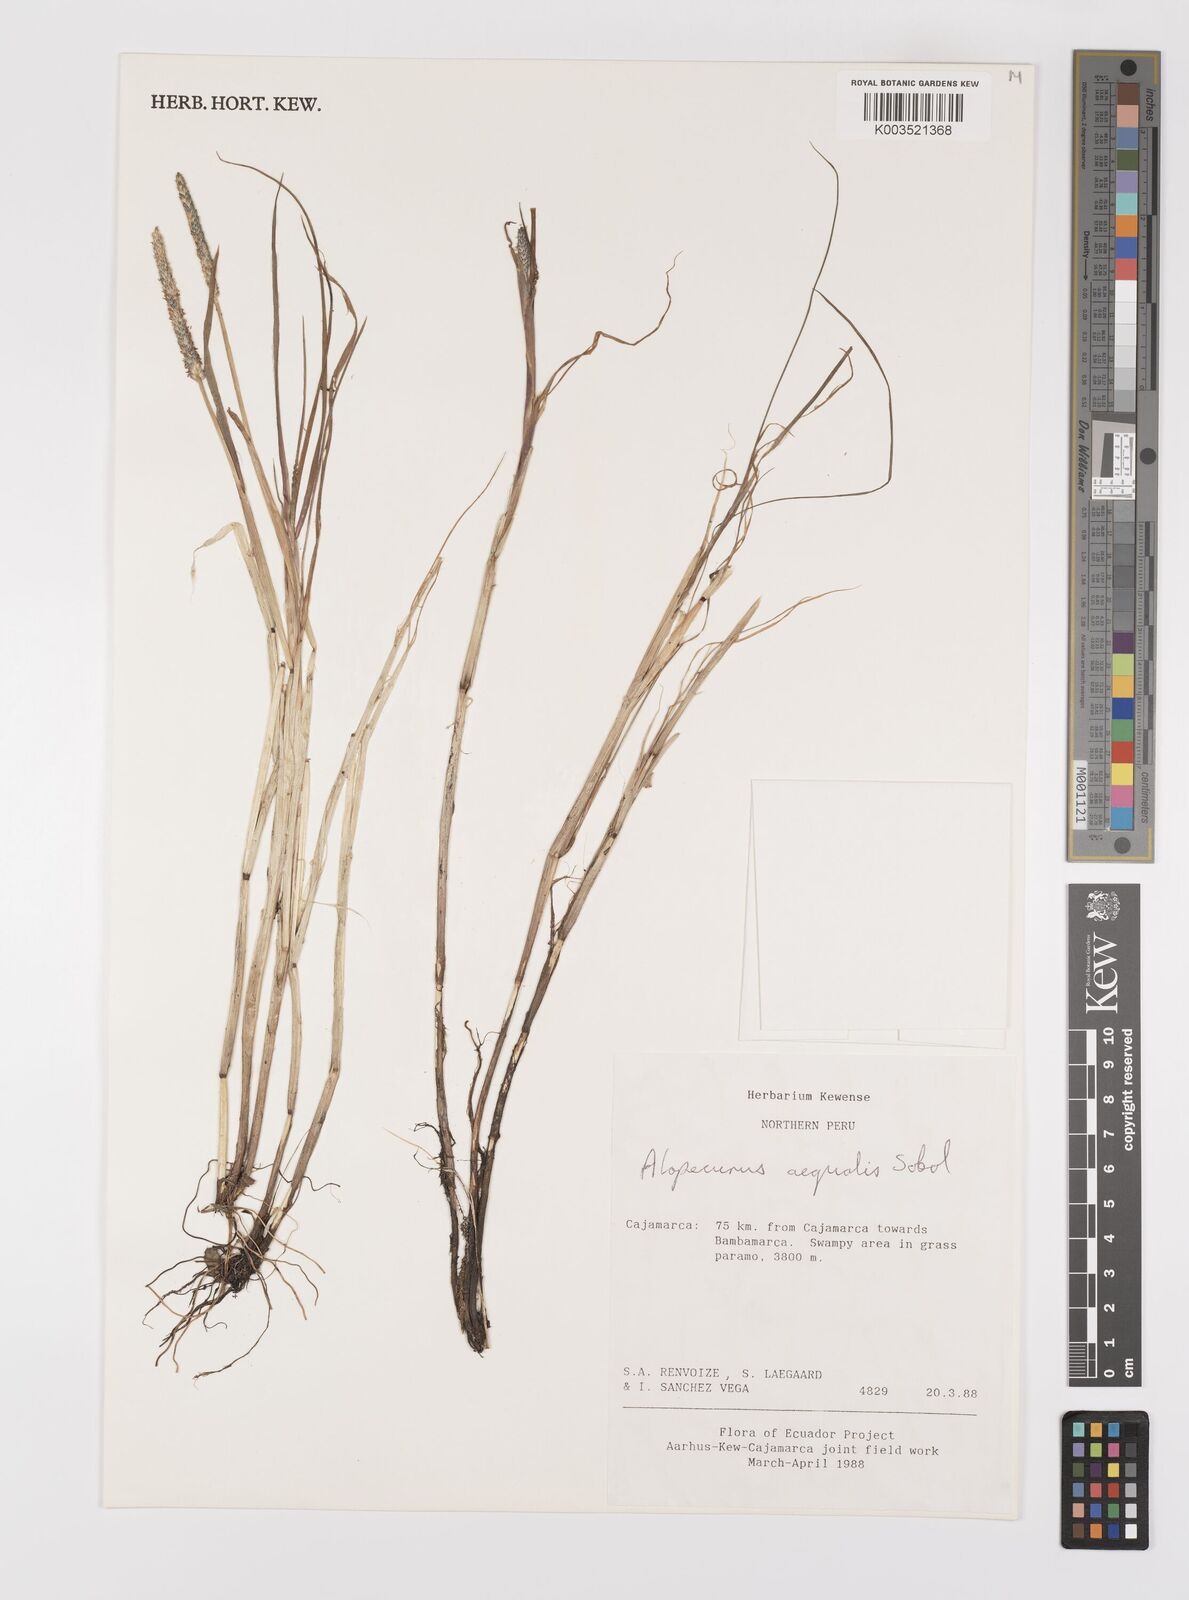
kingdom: Plantae
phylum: Tracheophyta
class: Liliopsida
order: Poales
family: Poaceae
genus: Alopecurus
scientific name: Alopecurus aequalis
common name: Orange foxtail
